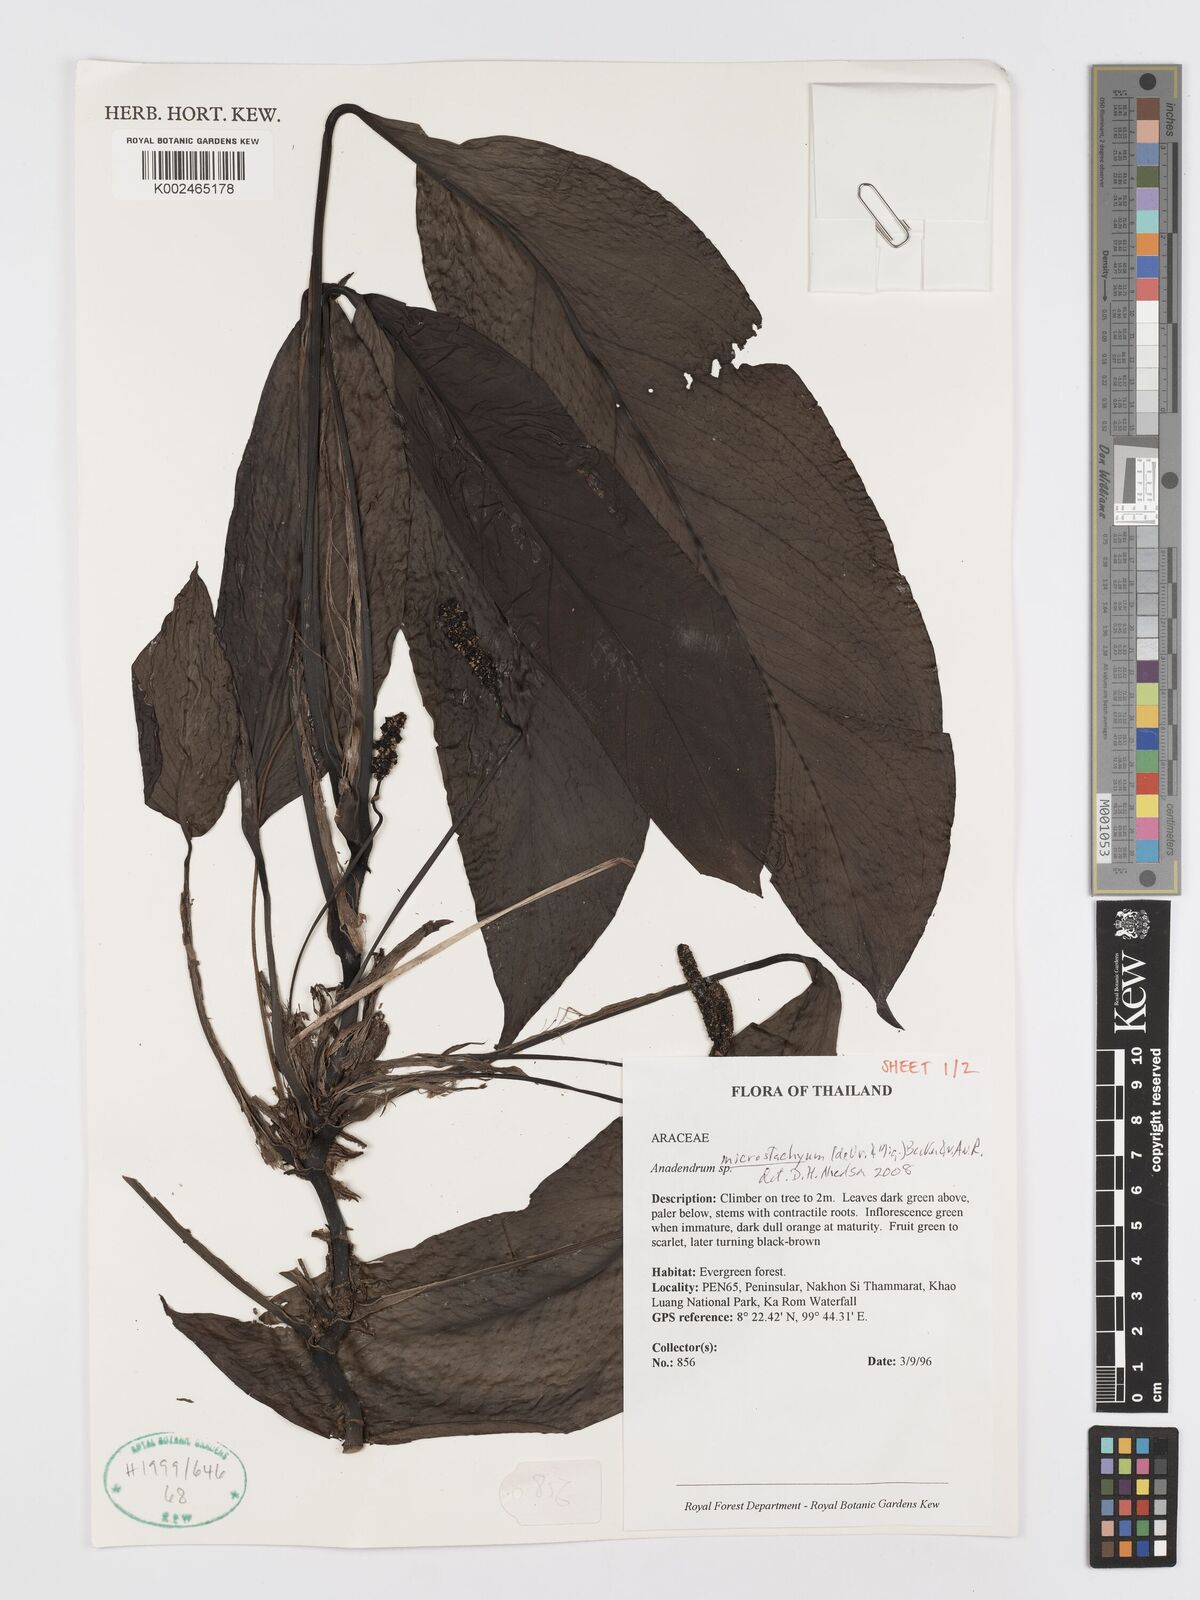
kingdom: Plantae
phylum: Tracheophyta
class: Liliopsida
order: Alismatales
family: Araceae
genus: Anadendrum
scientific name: Anadendrum microstachyum
